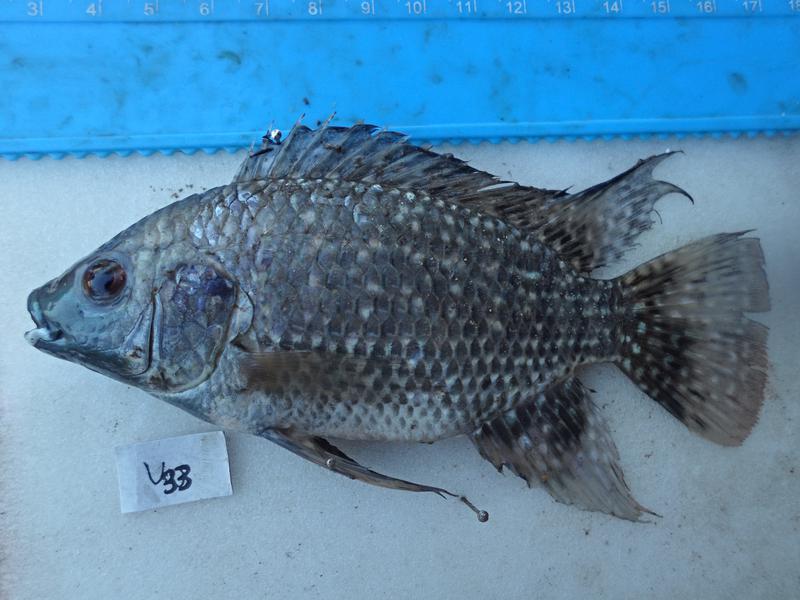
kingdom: Animalia
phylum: Chordata
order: Perciformes
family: Cichlidae
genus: Oreochromis
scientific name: Oreochromis leucostictus
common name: Blue spotted tilapia
